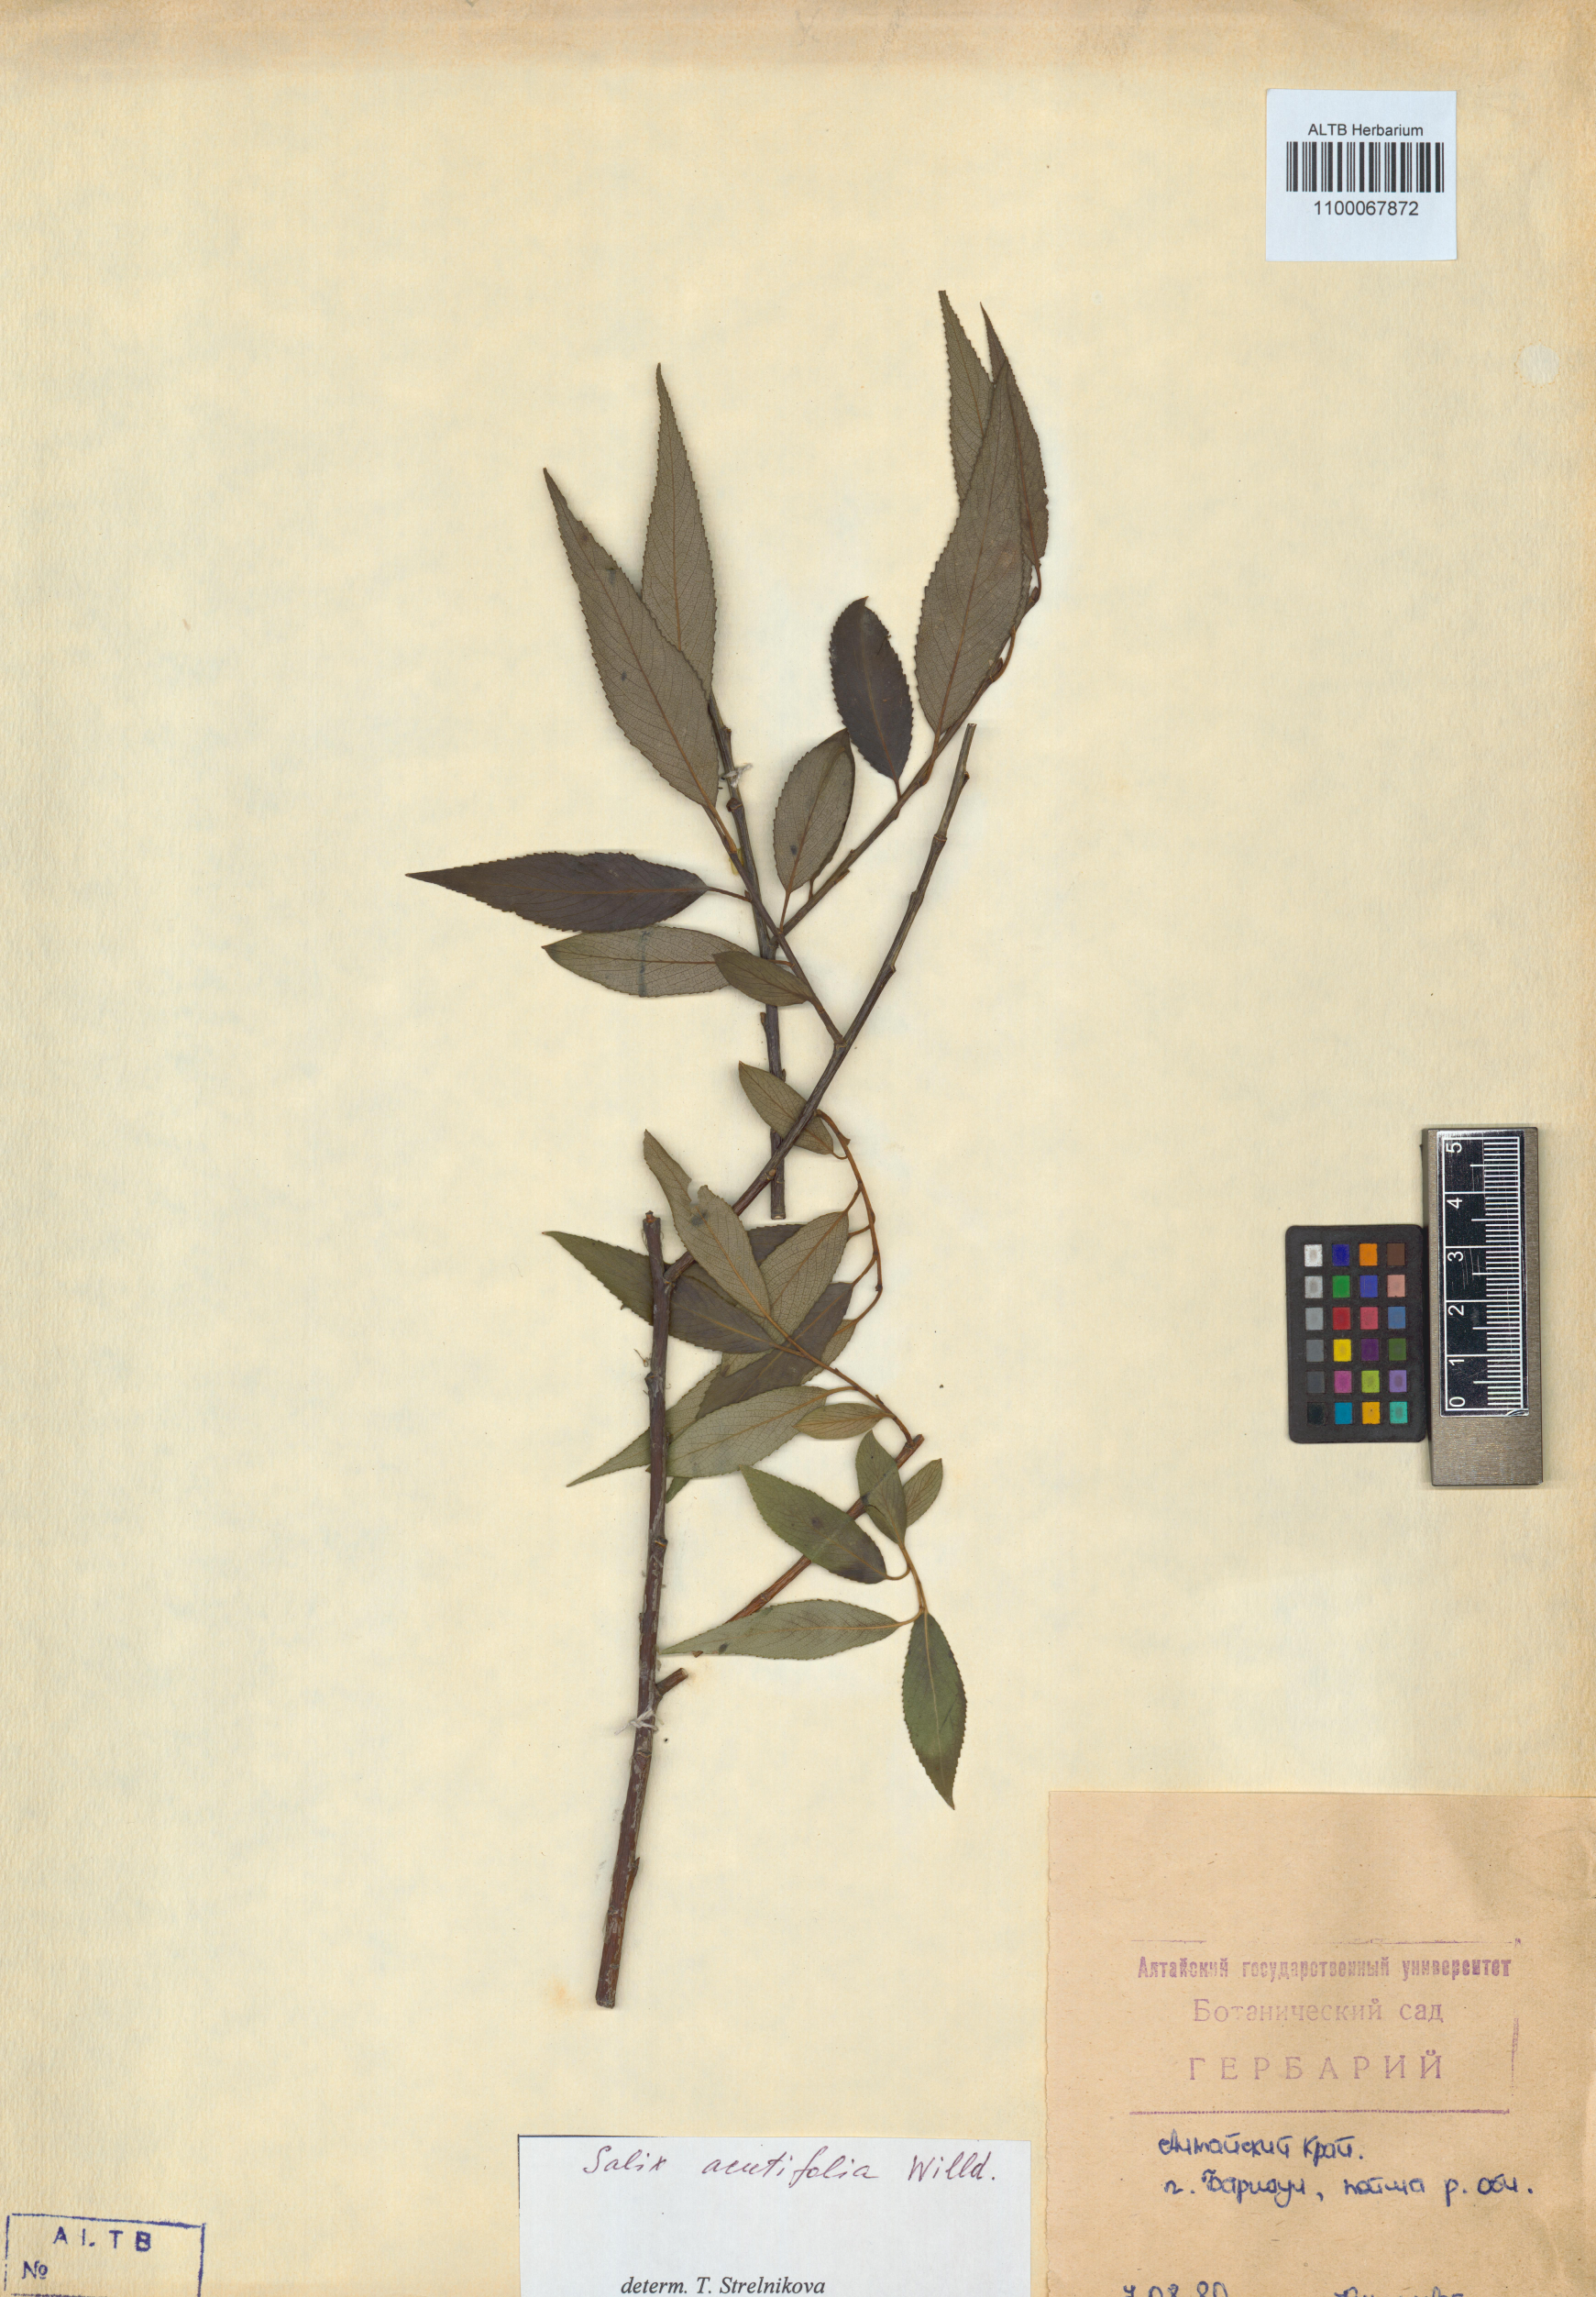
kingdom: Plantae
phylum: Tracheophyta
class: Magnoliopsida
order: Malpighiales
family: Salicaceae
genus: Salix
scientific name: Salix acutifolia
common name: Siberian violet-willow
